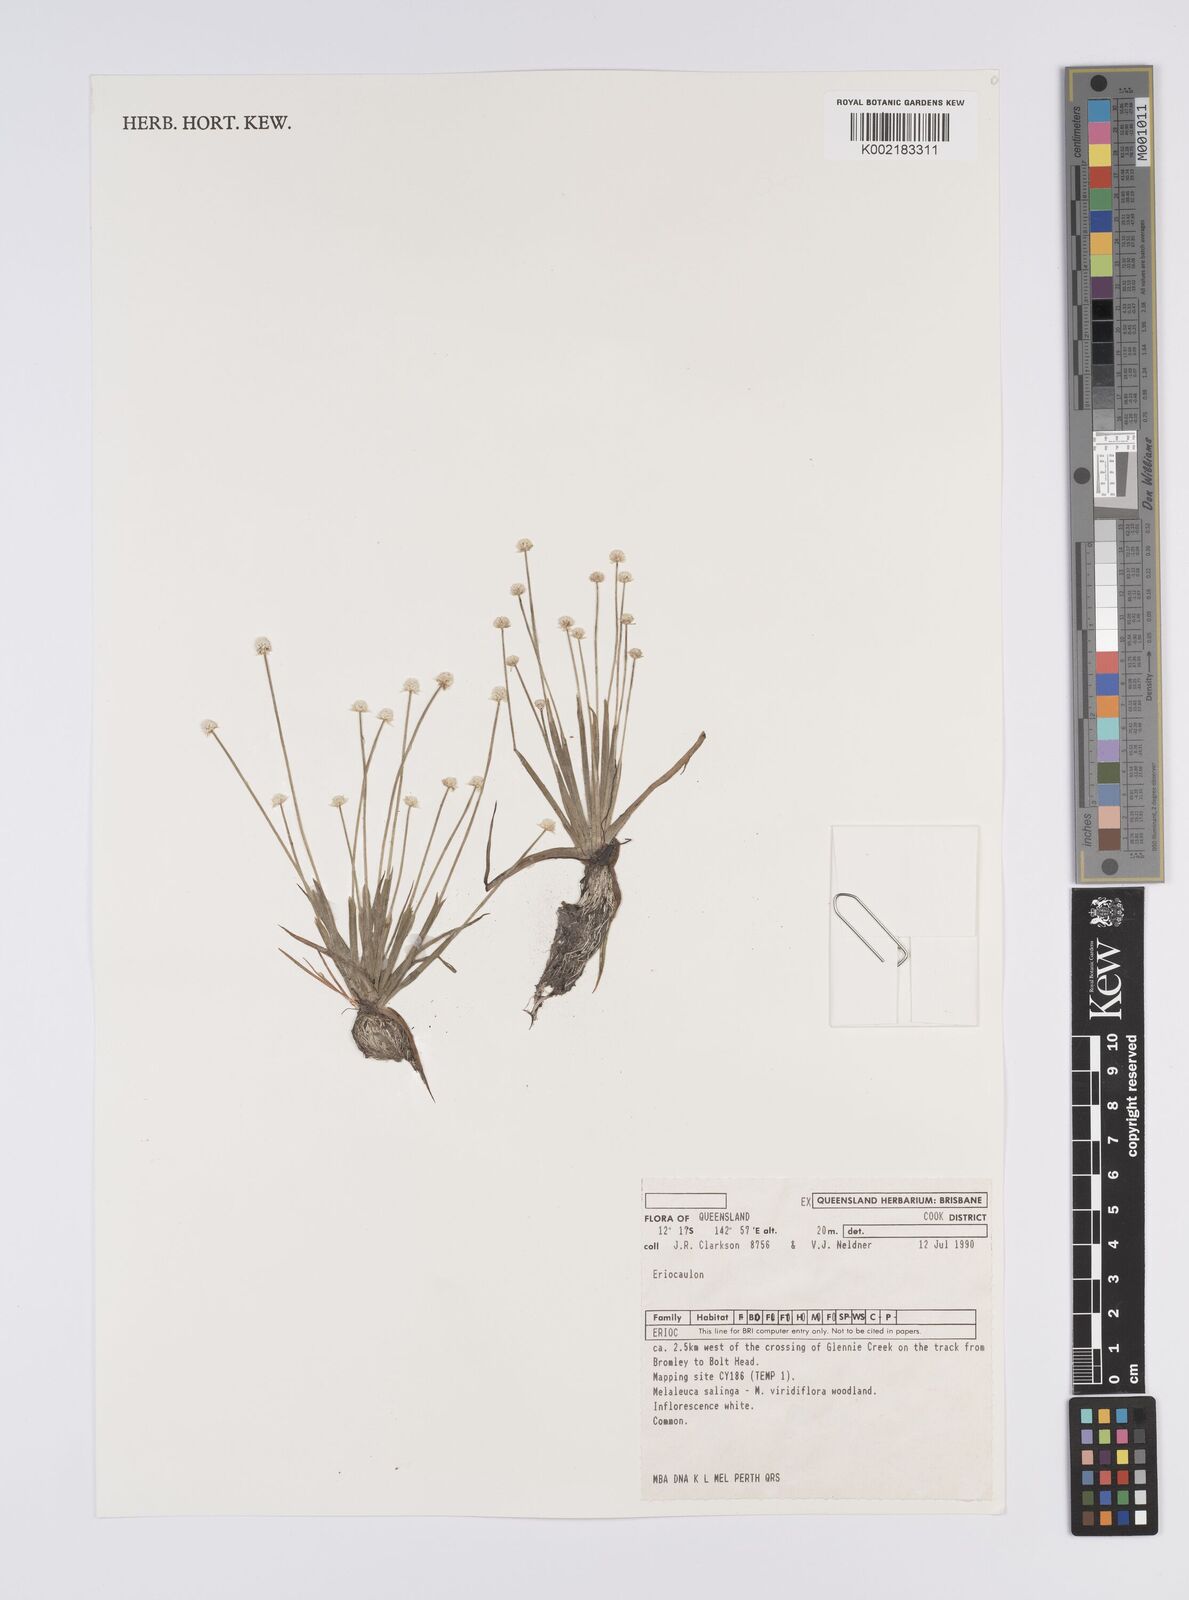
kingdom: Plantae
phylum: Tracheophyta
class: Liliopsida
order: Poales
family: Eriocaulaceae
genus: Eriocaulon
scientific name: Eriocaulon
